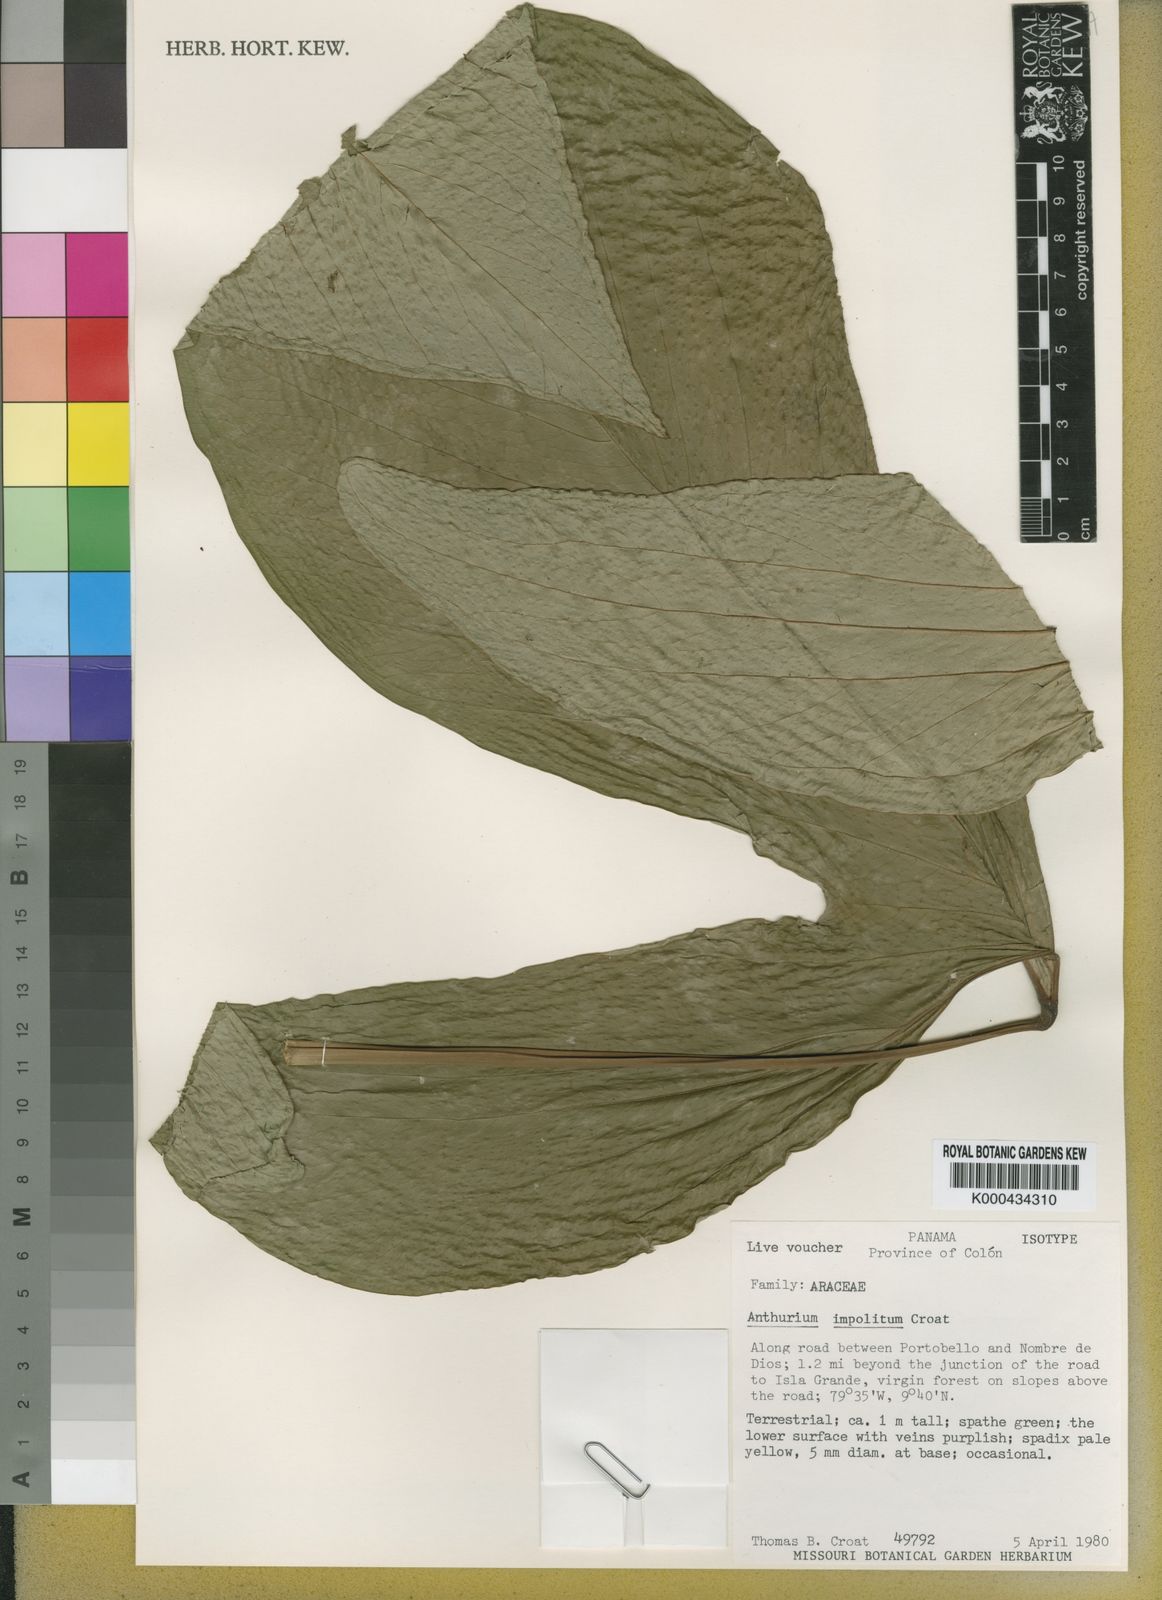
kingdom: Plantae
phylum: Tracheophyta
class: Liliopsida
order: Alismatales
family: Araceae
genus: Anthurium
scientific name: Anthurium impolitum
